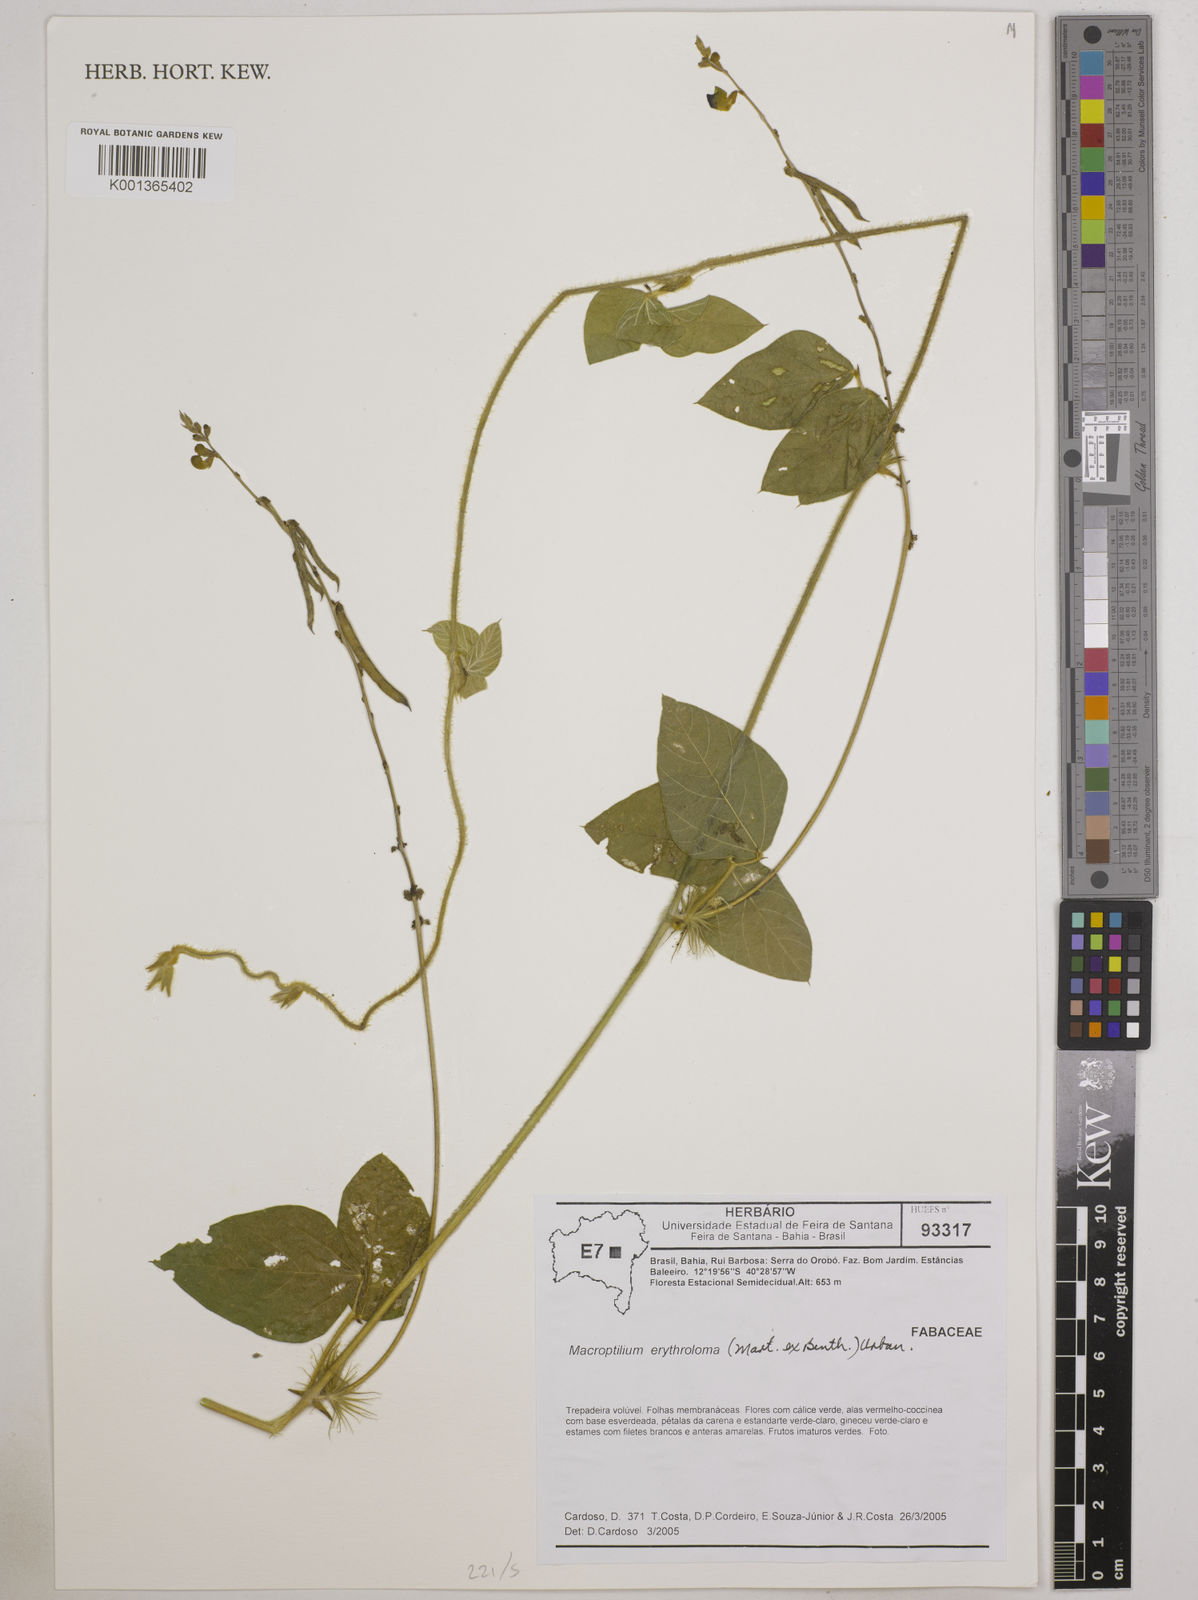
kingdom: Plantae
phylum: Tracheophyta
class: Magnoliopsida
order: Fabales
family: Fabaceae
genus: Macroptilium
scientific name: Macroptilium erythroloma
